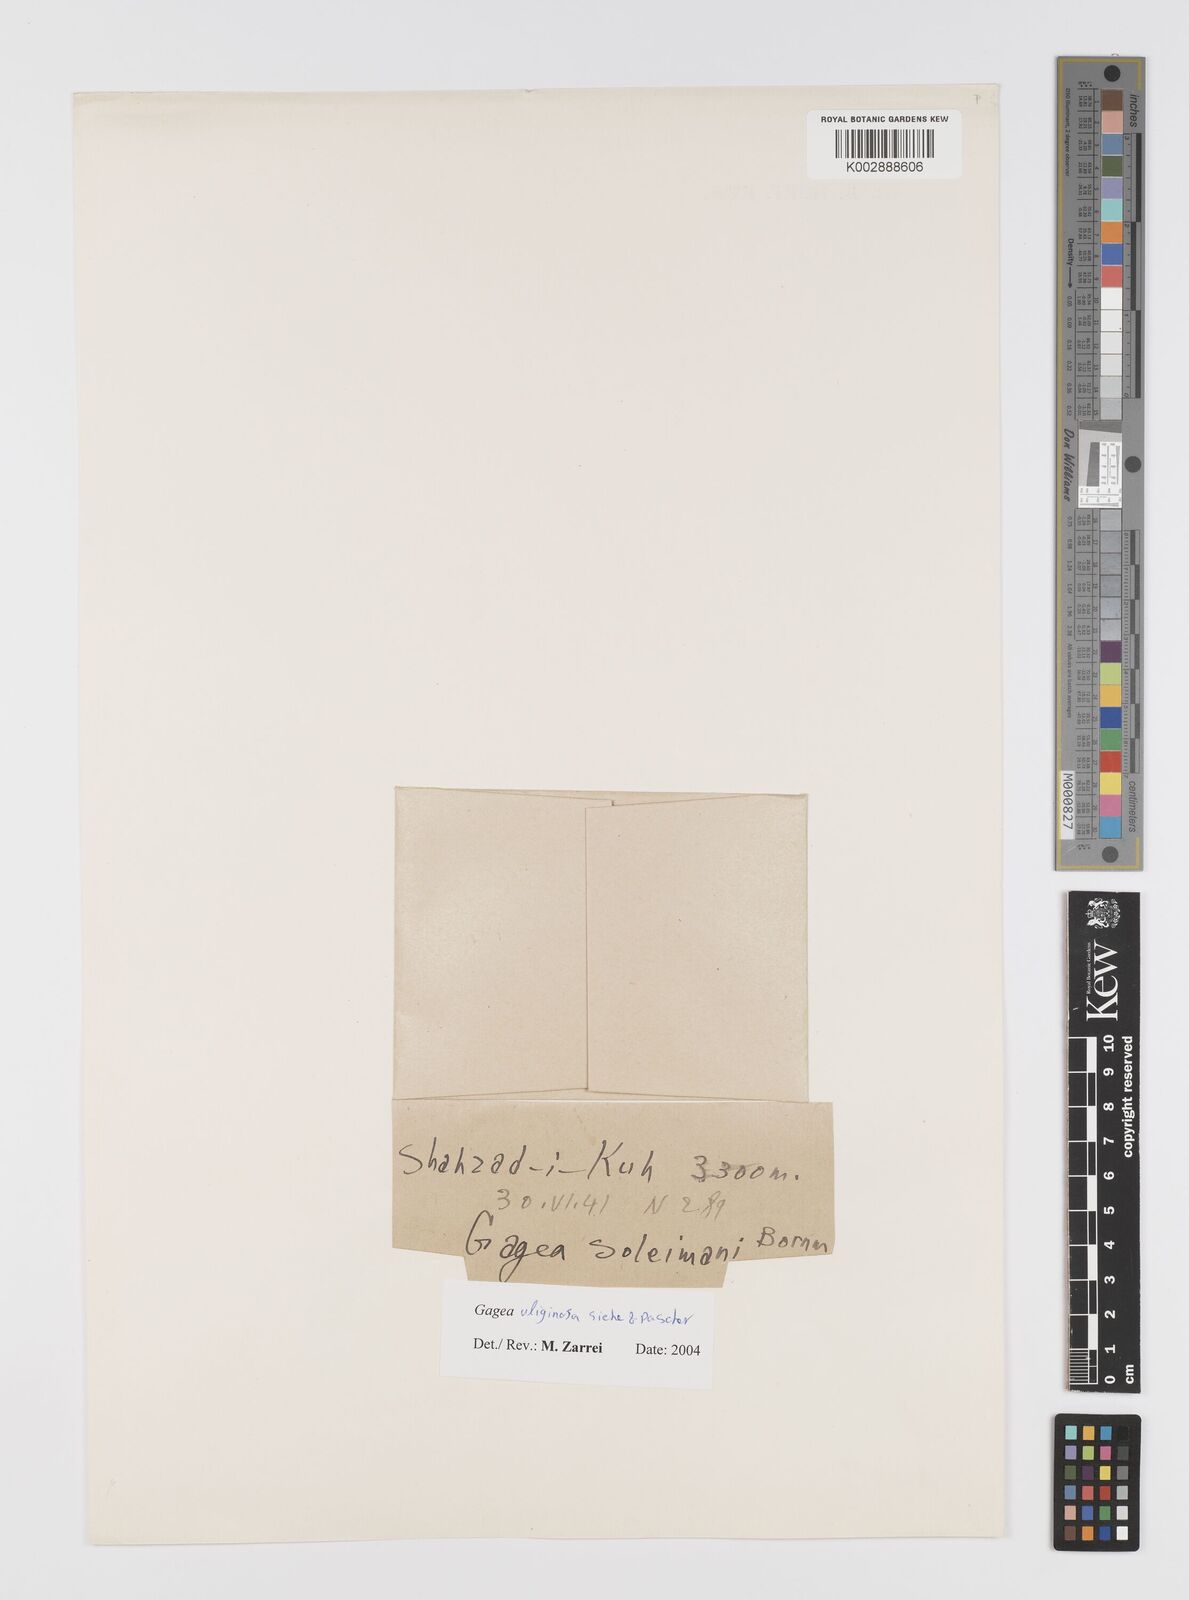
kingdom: Plantae
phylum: Tracheophyta
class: Liliopsida
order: Liliales
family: Liliaceae
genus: Gagea
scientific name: Gagea uliginosa
